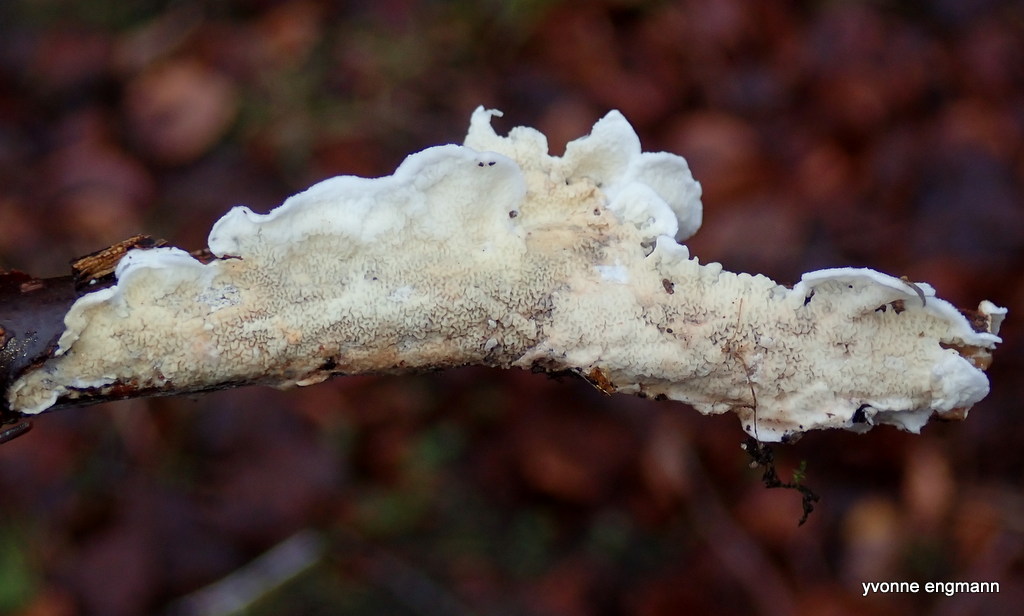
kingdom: Fungi
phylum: Basidiomycota
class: Agaricomycetes
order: Polyporales
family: Irpicaceae
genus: Byssomerulius
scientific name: Byssomerulius corium
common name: læder-åresvamp
